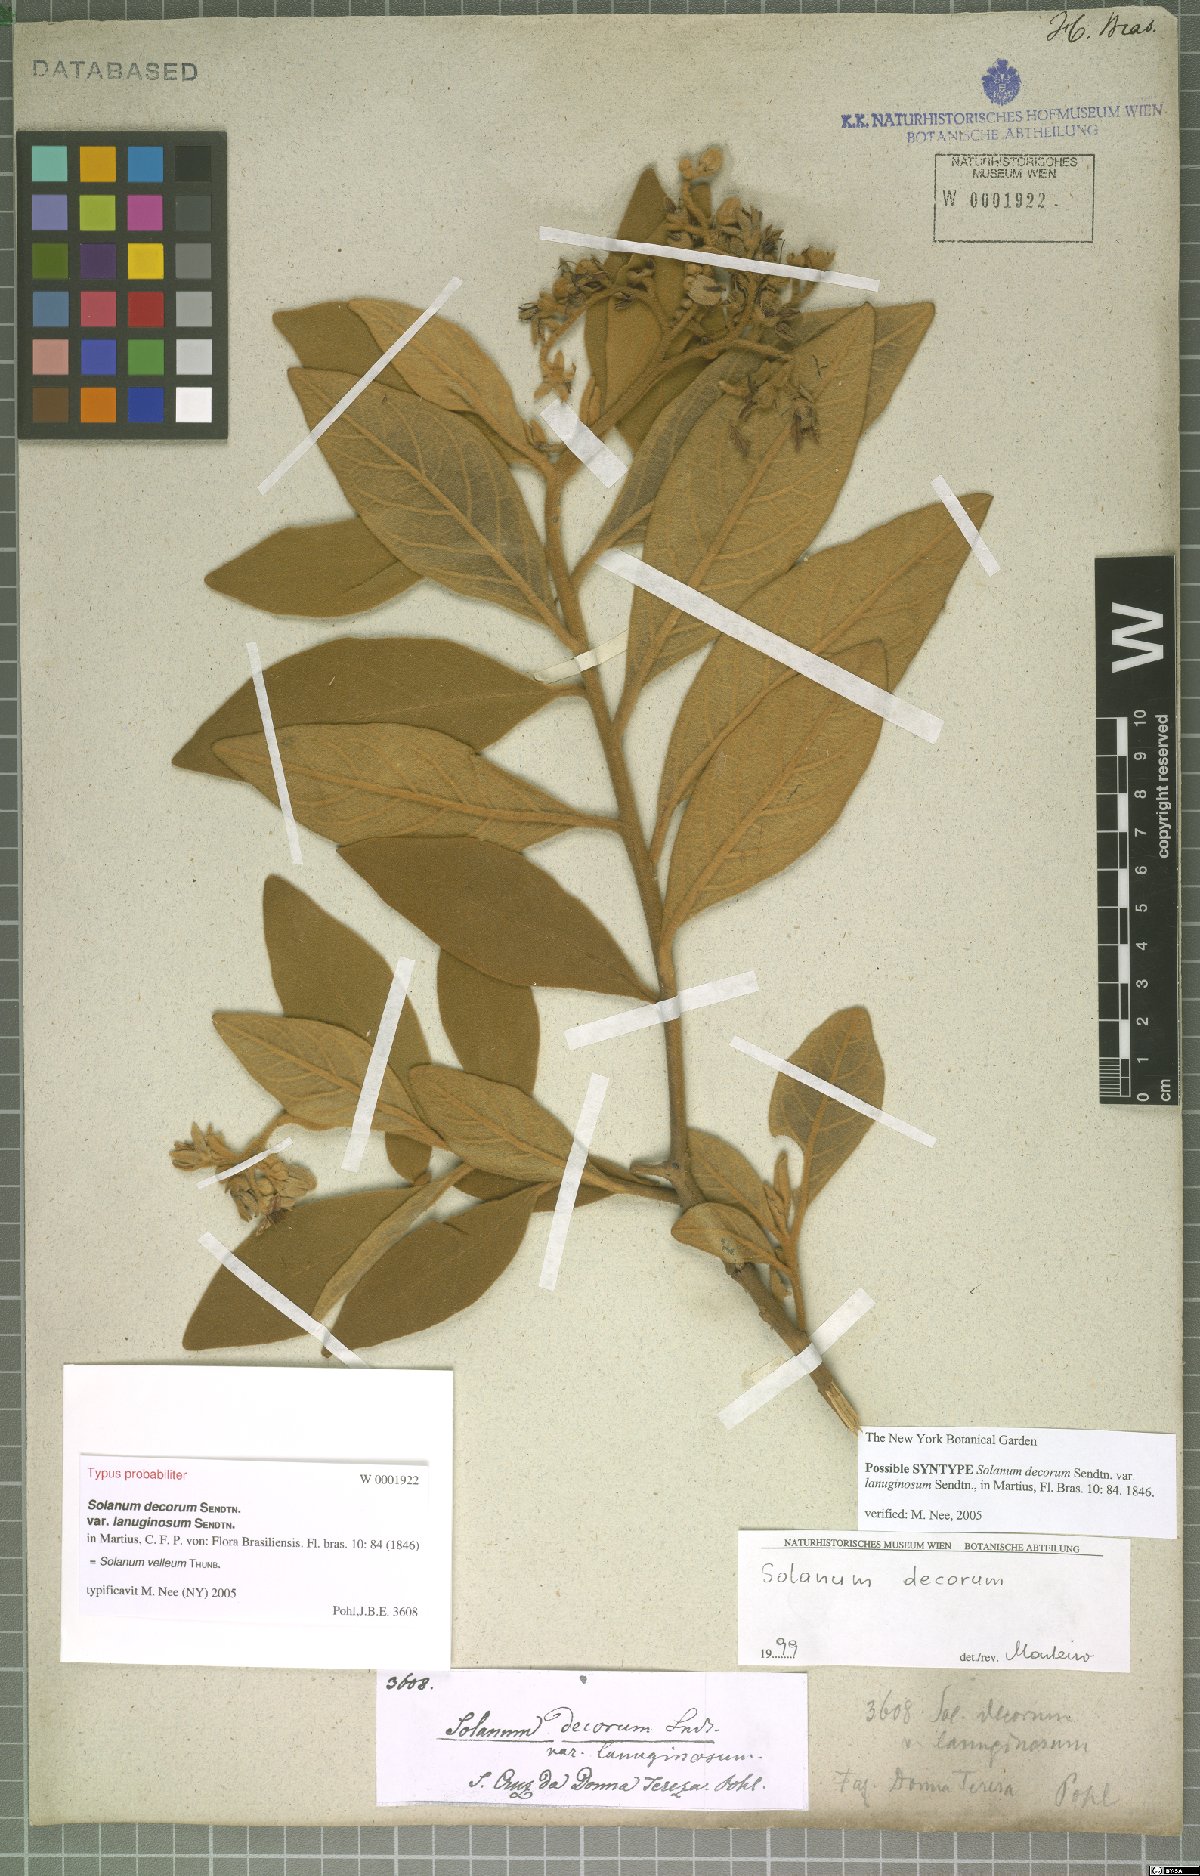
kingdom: Plantae
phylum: Tracheophyta
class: Magnoliopsida
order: Solanales
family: Solanaceae
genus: Solanum
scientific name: Solanum velleum
